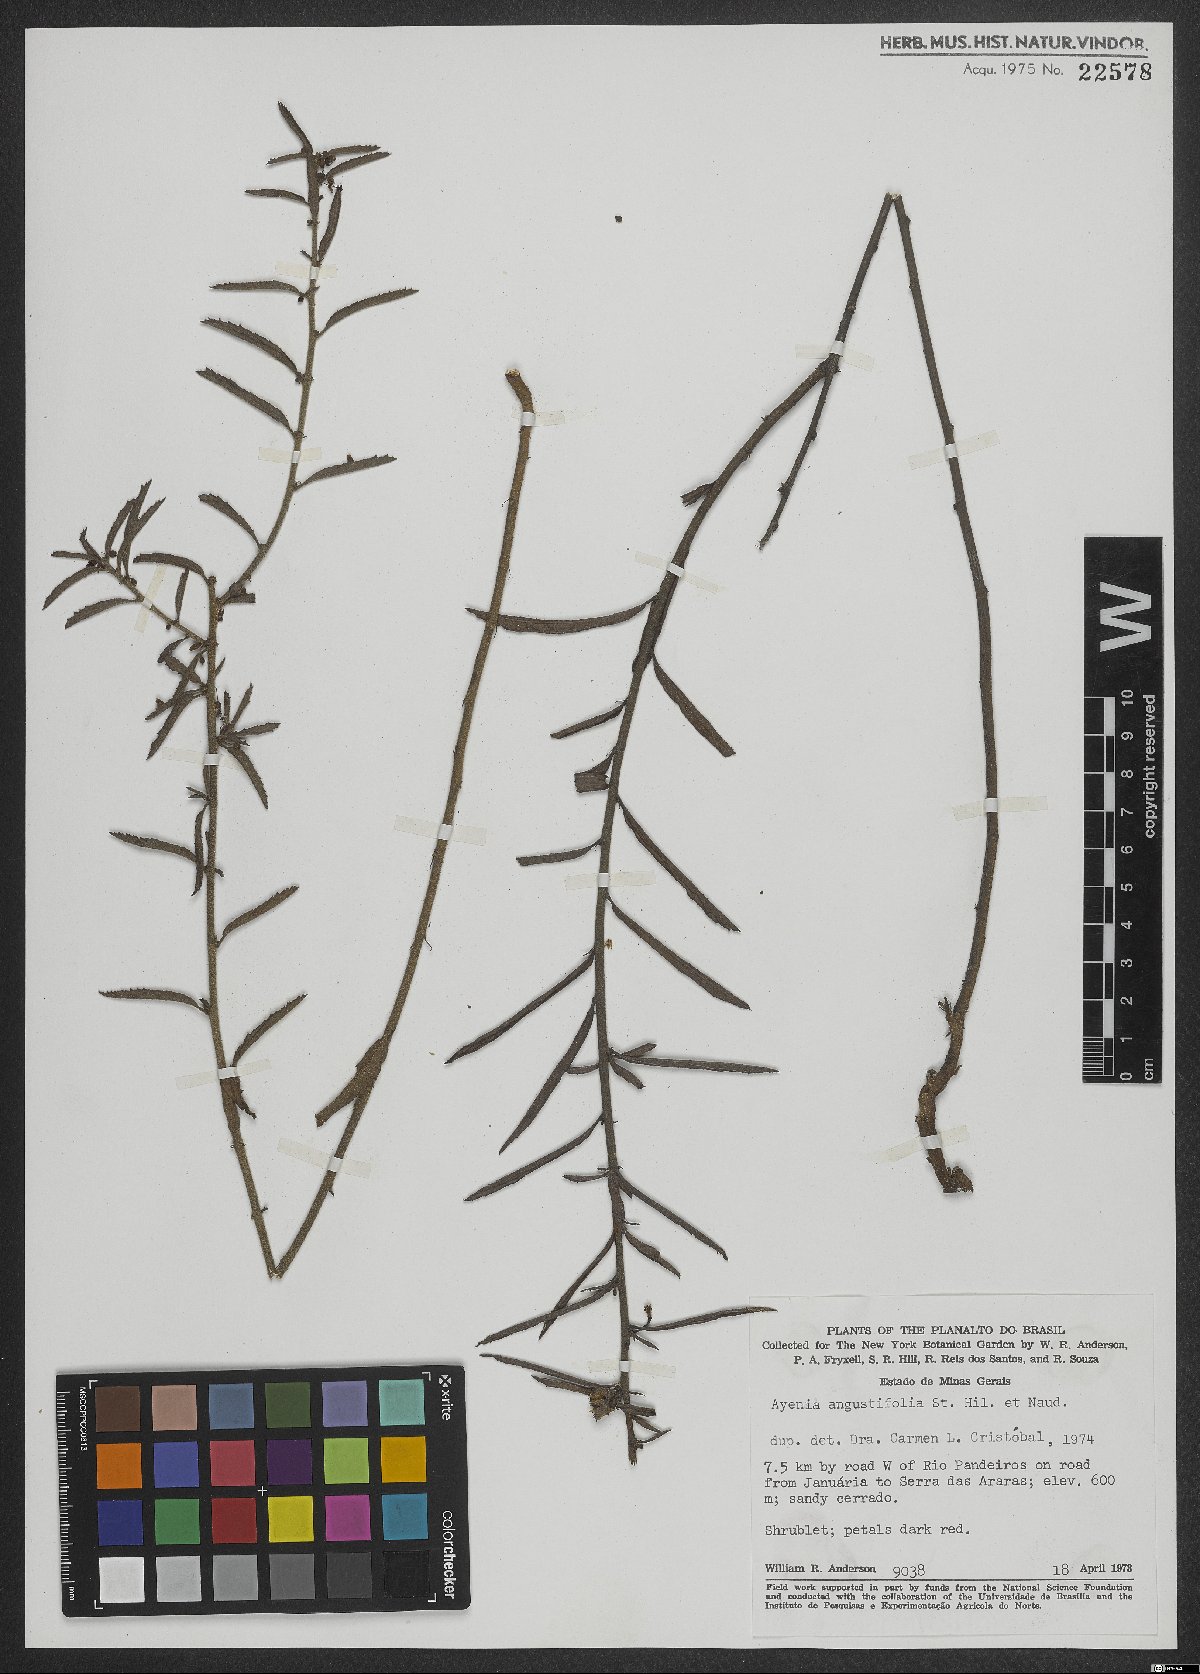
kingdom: Plantae
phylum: Tracheophyta
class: Magnoliopsida
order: Malvales
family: Malvaceae
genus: Ayenia
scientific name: Ayenia angustifolia
